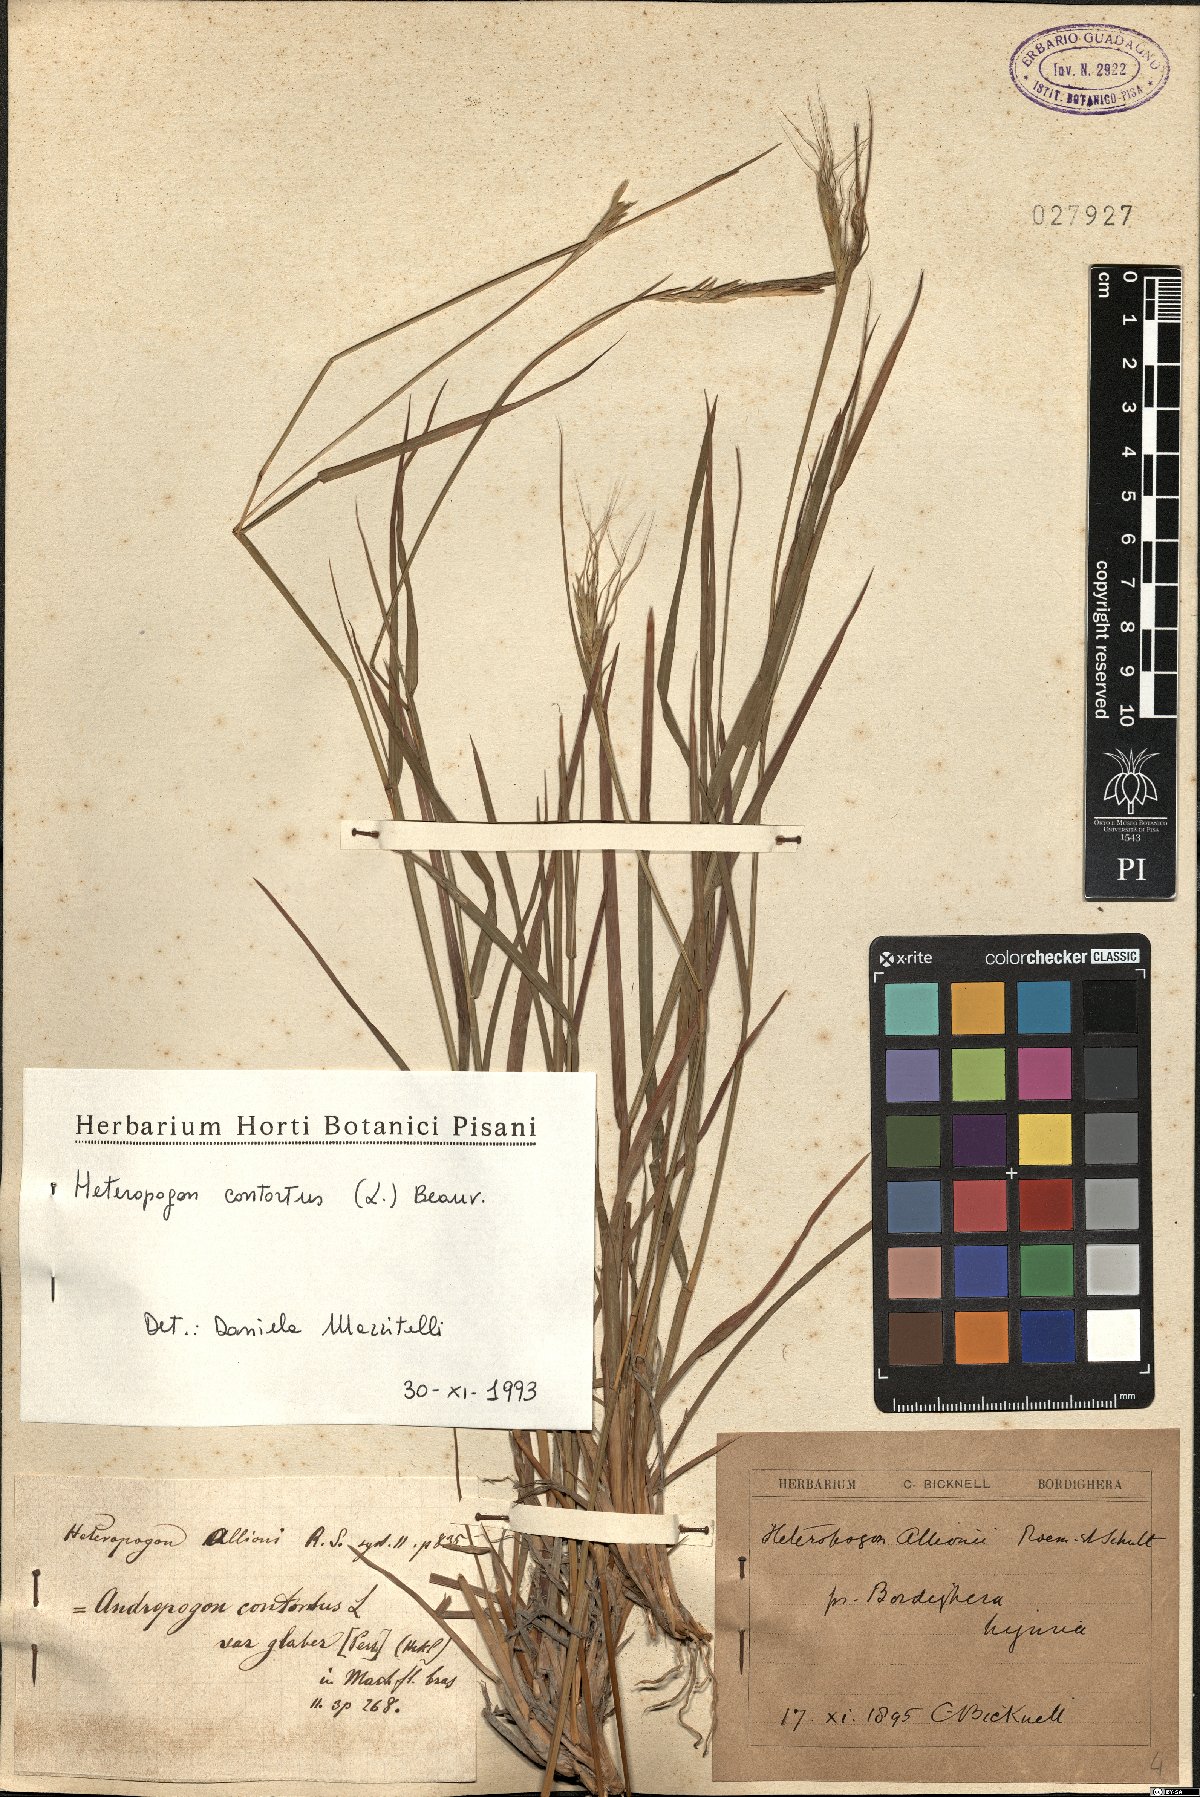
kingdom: Plantae
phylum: Tracheophyta
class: Liliopsida
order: Poales
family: Poaceae
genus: Heteropogon
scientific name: Heteropogon contortus
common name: Tanglehead
